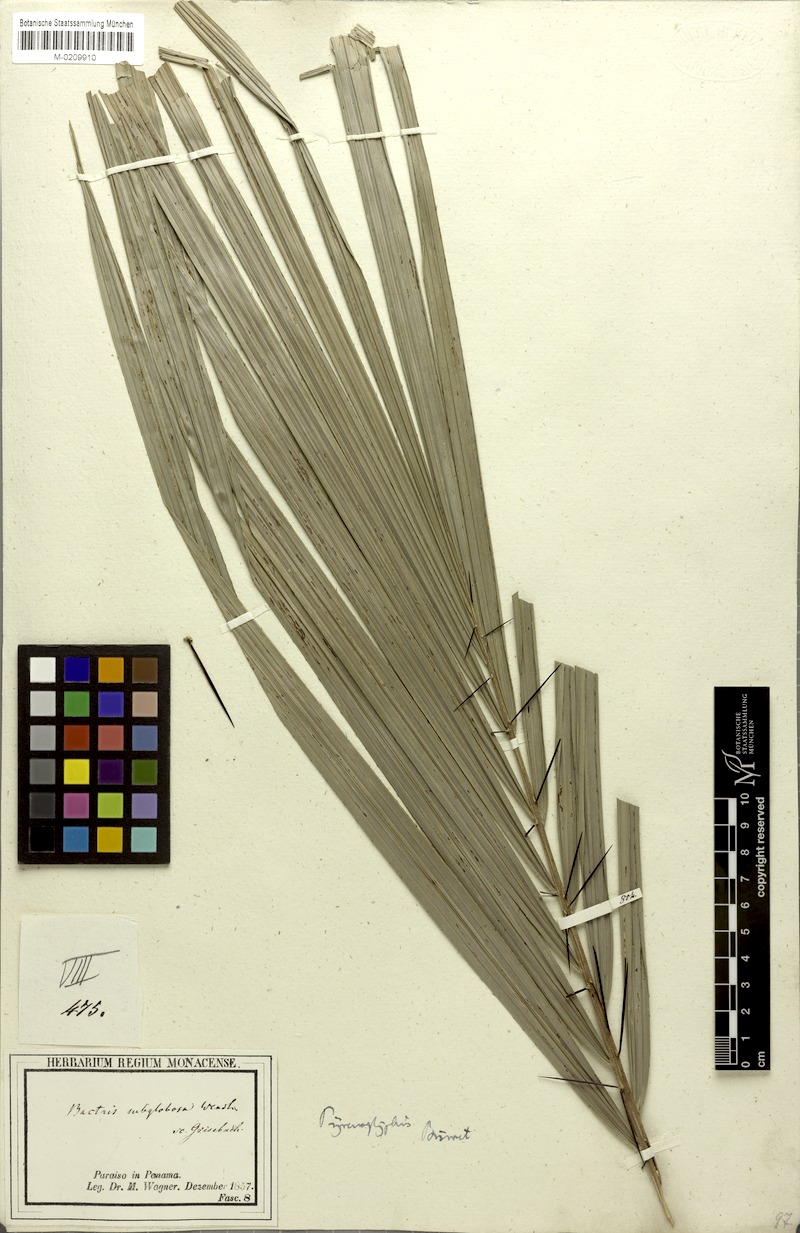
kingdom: Plantae
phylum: Tracheophyta
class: Liliopsida
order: Arecales
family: Arecaceae
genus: Bactris
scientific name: Bactris major
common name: Beach palm
